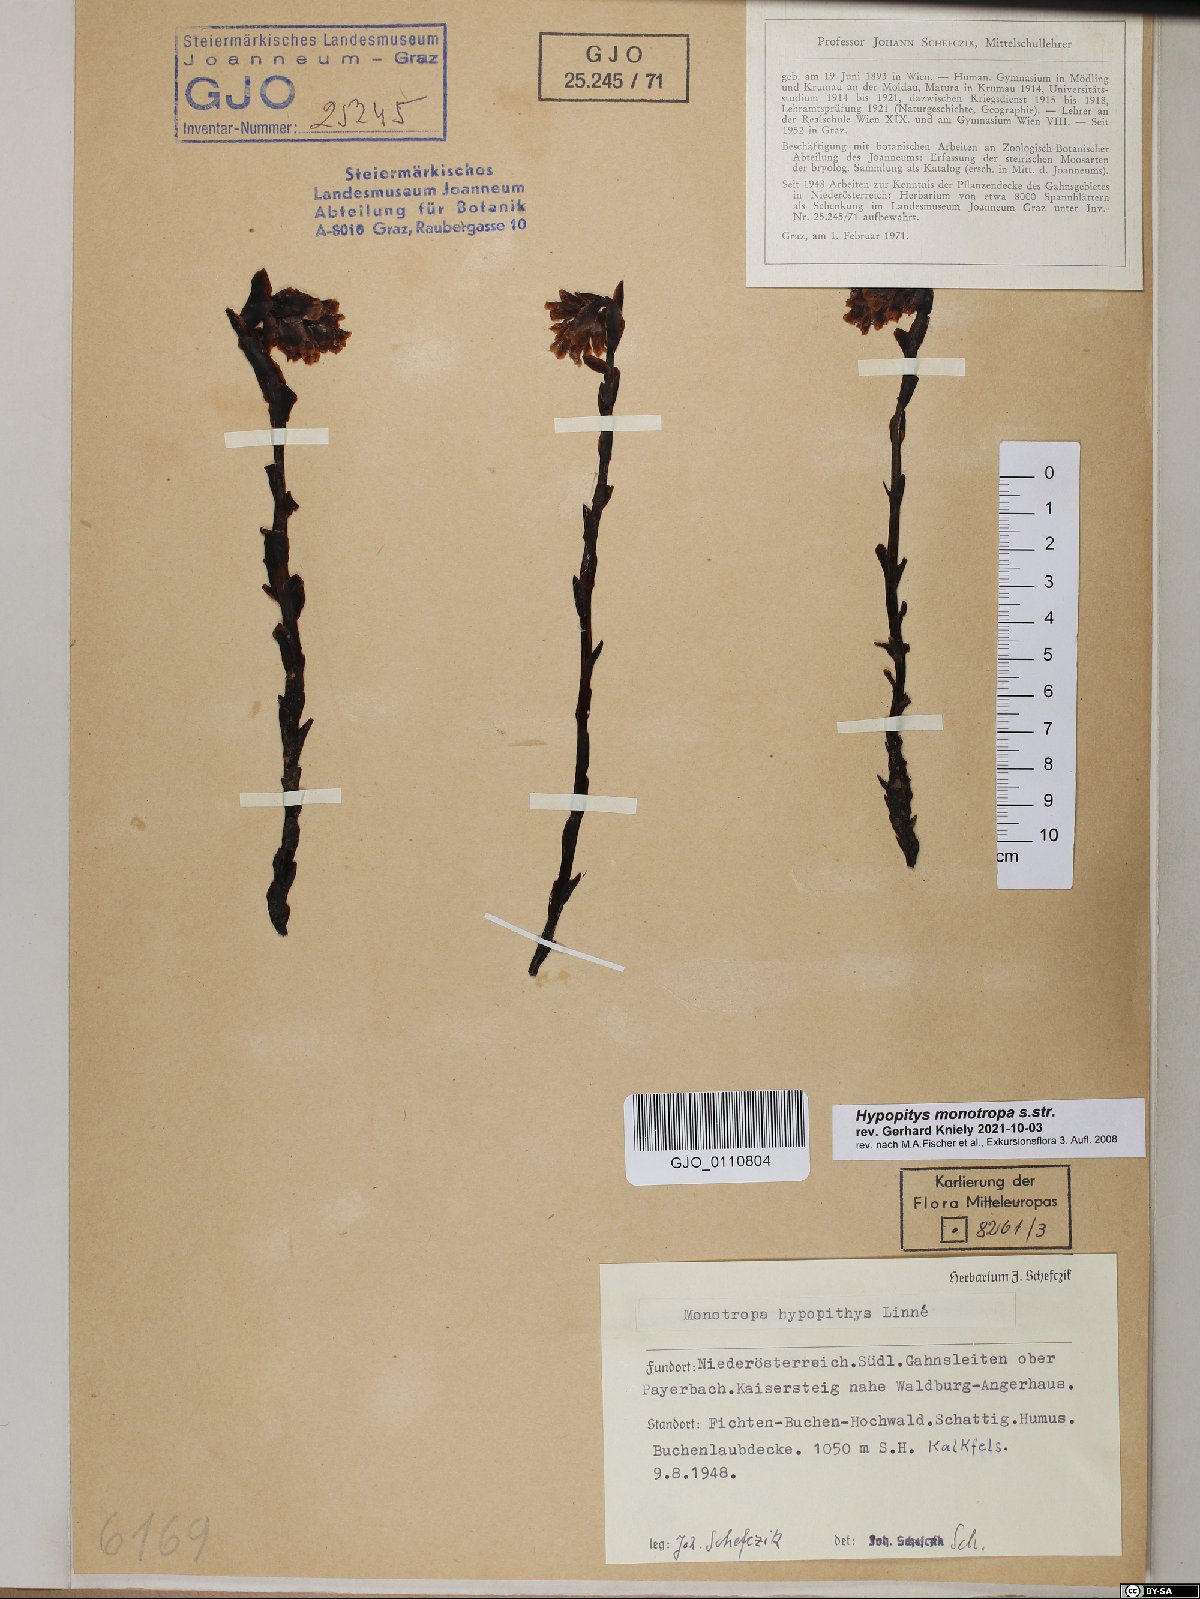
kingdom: Plantae
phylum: Tracheophyta
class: Magnoliopsida
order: Ericales
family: Ericaceae
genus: Hypopitys
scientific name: Hypopitys monotropa
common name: Yellow bird's-nest
